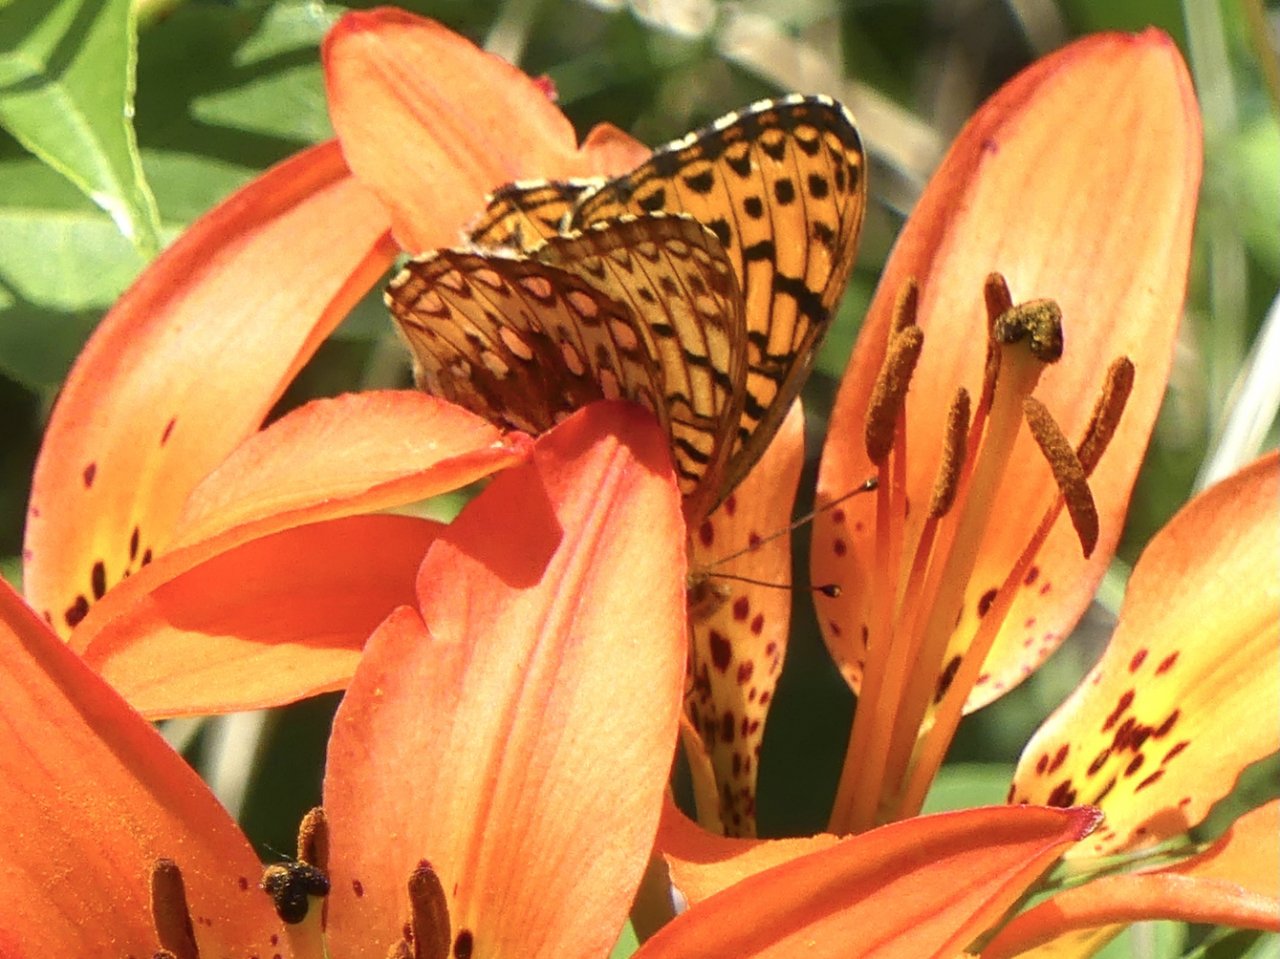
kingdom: Animalia
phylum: Arthropoda
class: Insecta
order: Lepidoptera
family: Nymphalidae
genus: Speyeria
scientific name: Speyeria
